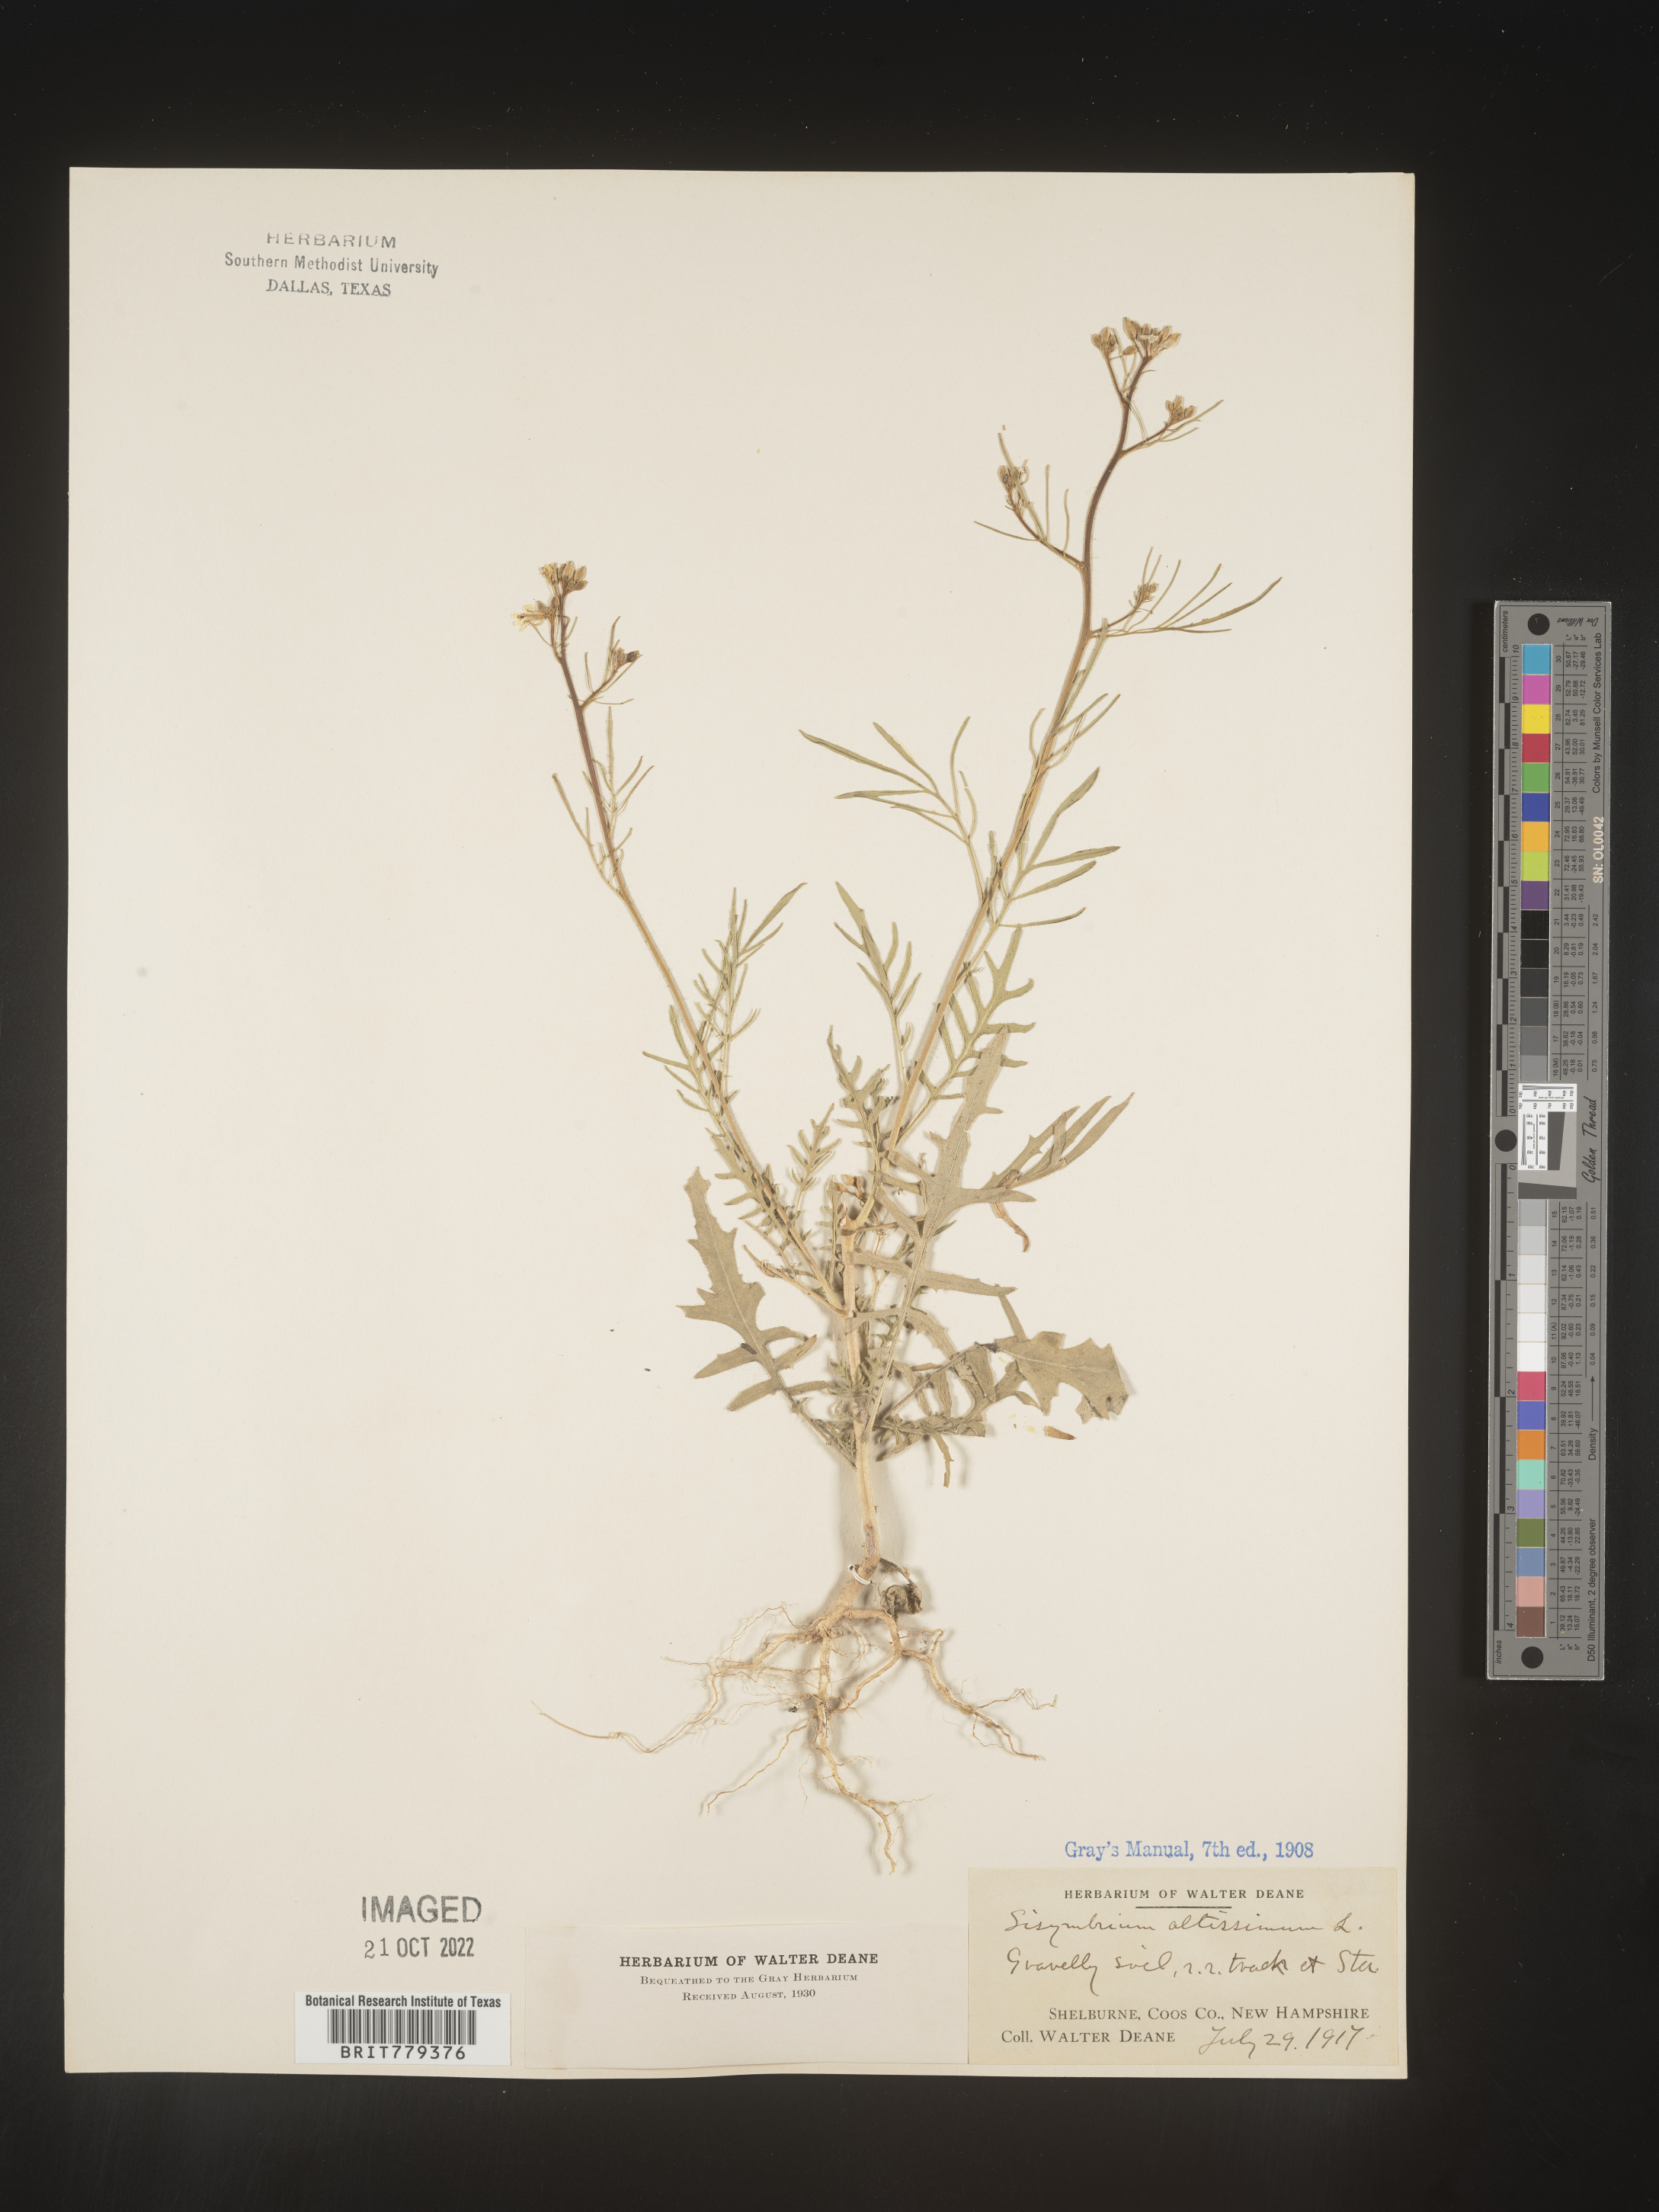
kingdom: Plantae
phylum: Tracheophyta
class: Magnoliopsida
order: Brassicales
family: Brassicaceae
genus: Sisymbrium
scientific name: Sisymbrium altissimum
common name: Tall rocket
